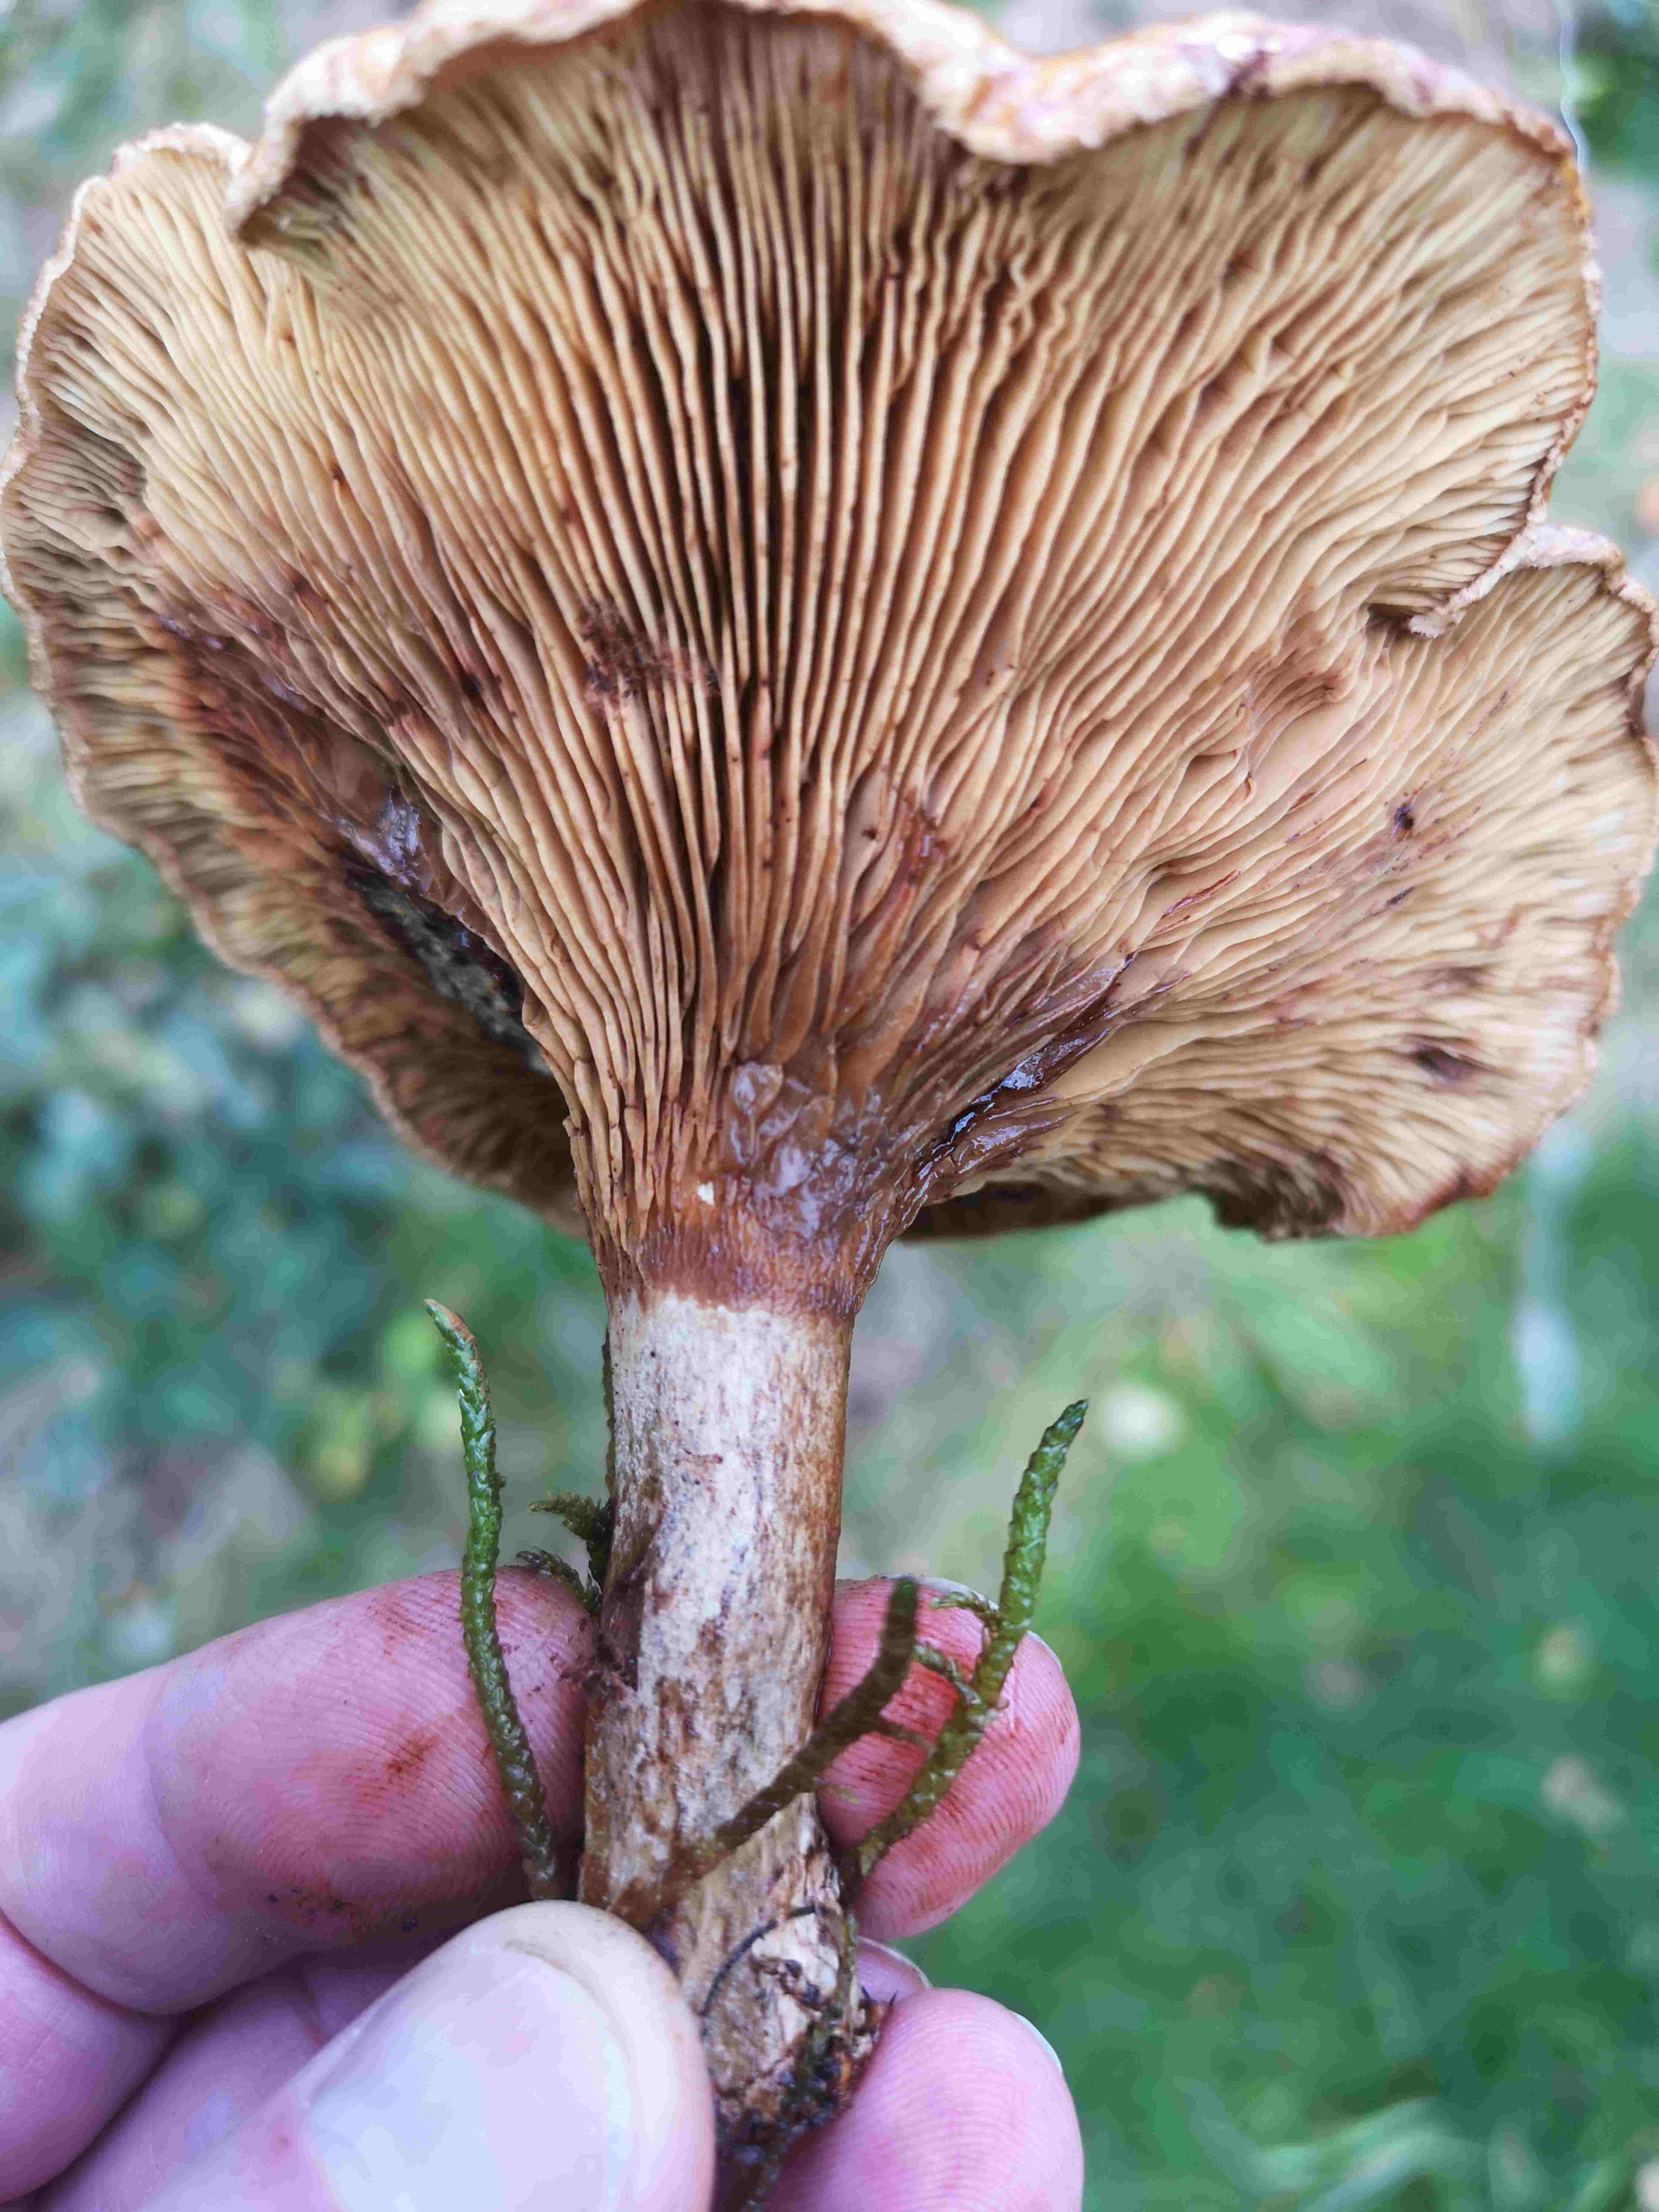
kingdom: Fungi
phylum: Basidiomycota
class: Agaricomycetes
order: Boletales
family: Paxillaceae
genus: Paxillus
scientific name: Paxillus involutus
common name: almindelig netbladhat
